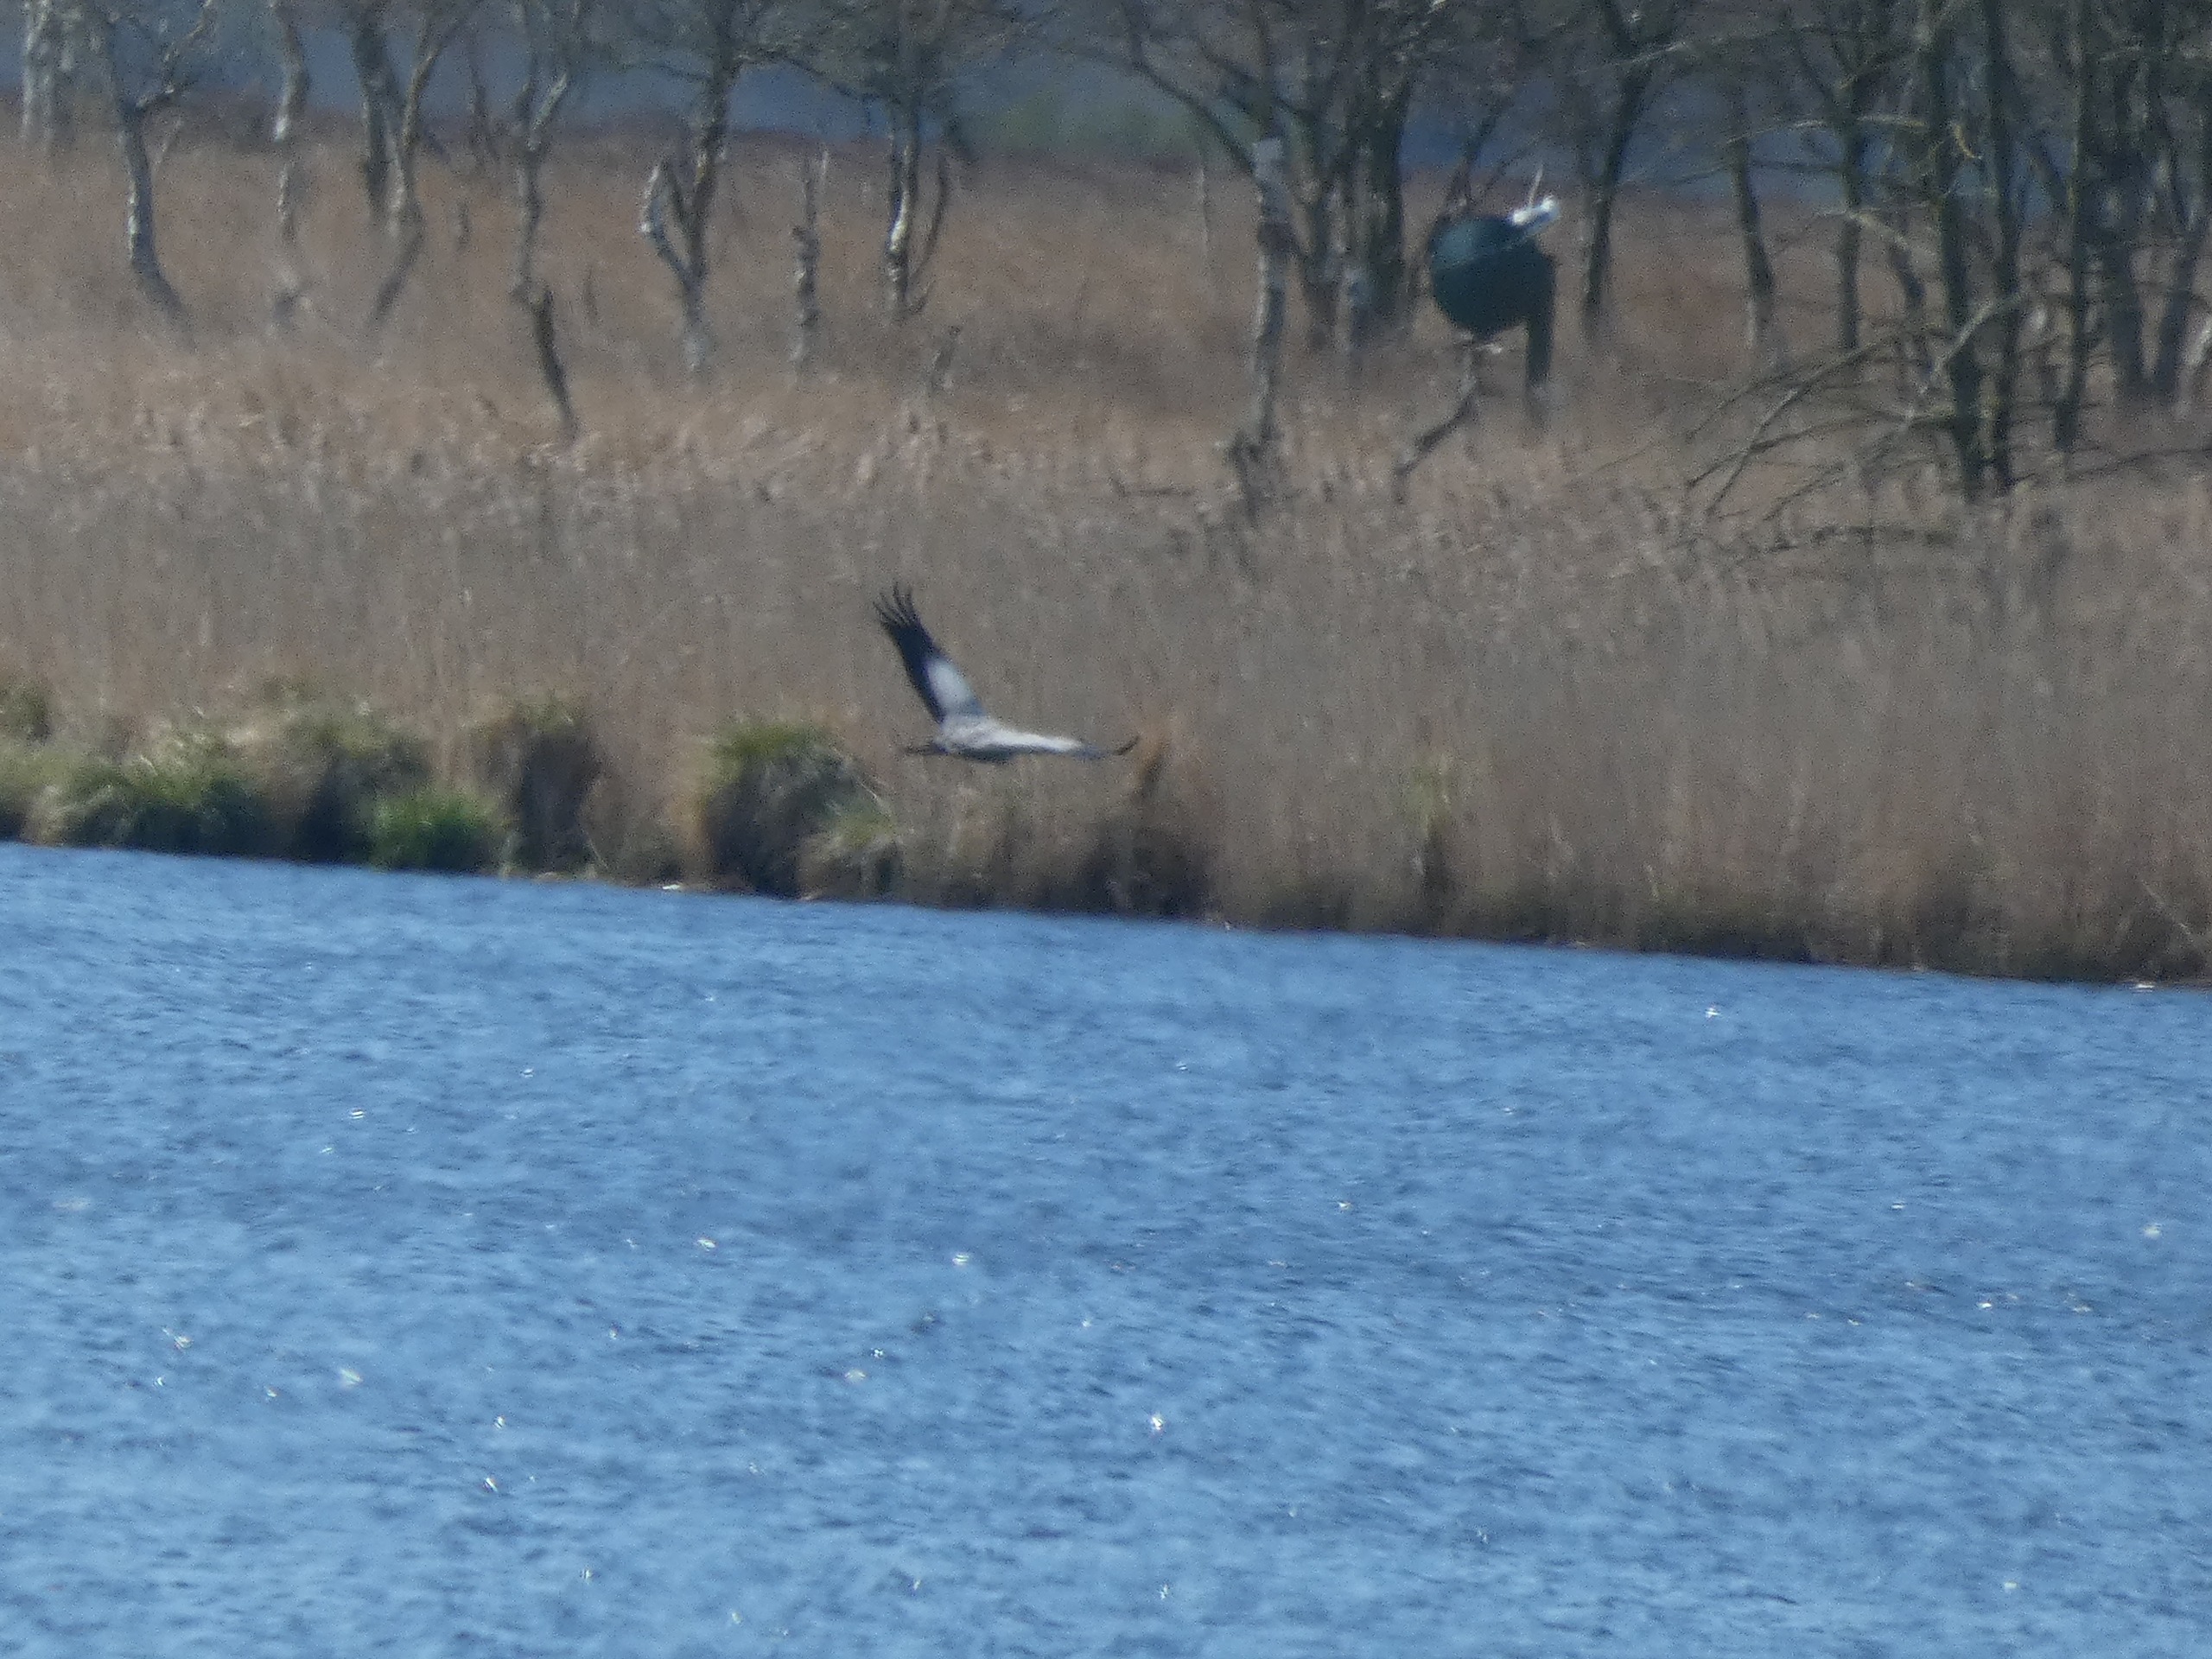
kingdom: Animalia
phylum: Chordata
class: Aves
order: Gruiformes
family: Gruidae
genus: Grus
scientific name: Grus grus
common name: Trane
